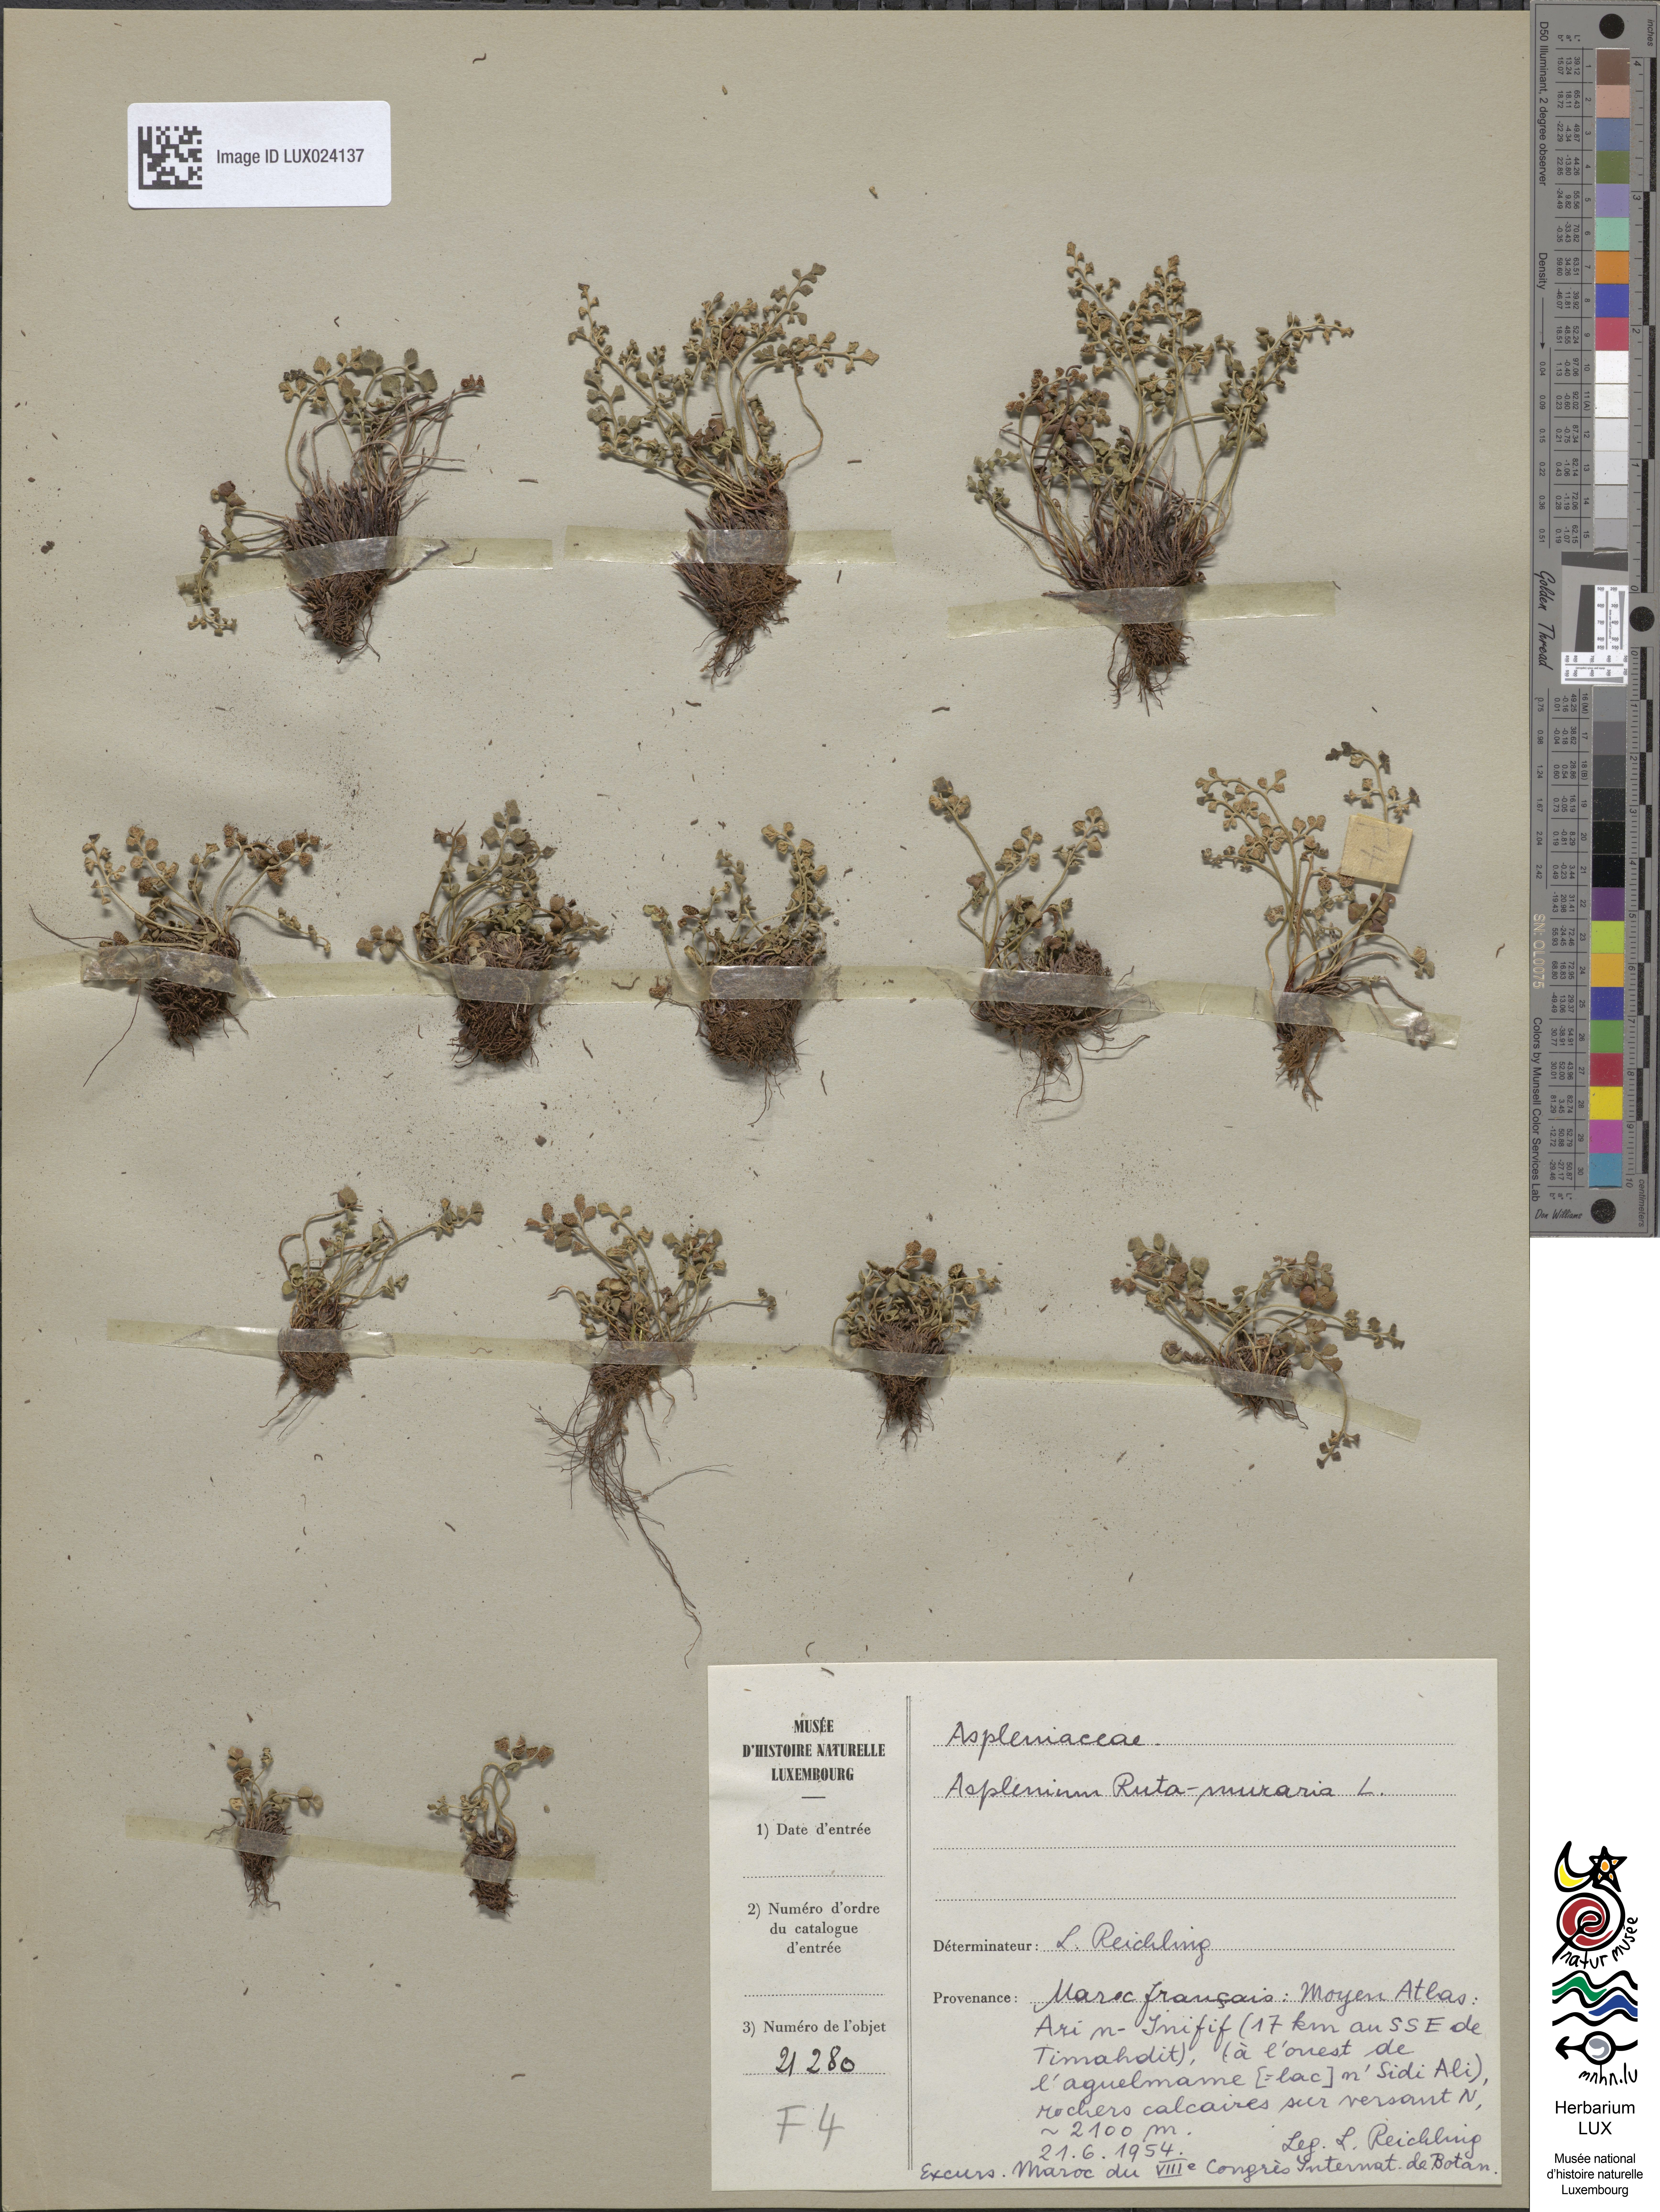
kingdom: Plantae
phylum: Tracheophyta
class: Polypodiopsida
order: Polypodiales
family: Aspleniaceae
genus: Asplenium
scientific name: Asplenium ruta-muraria
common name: Wall-rue
